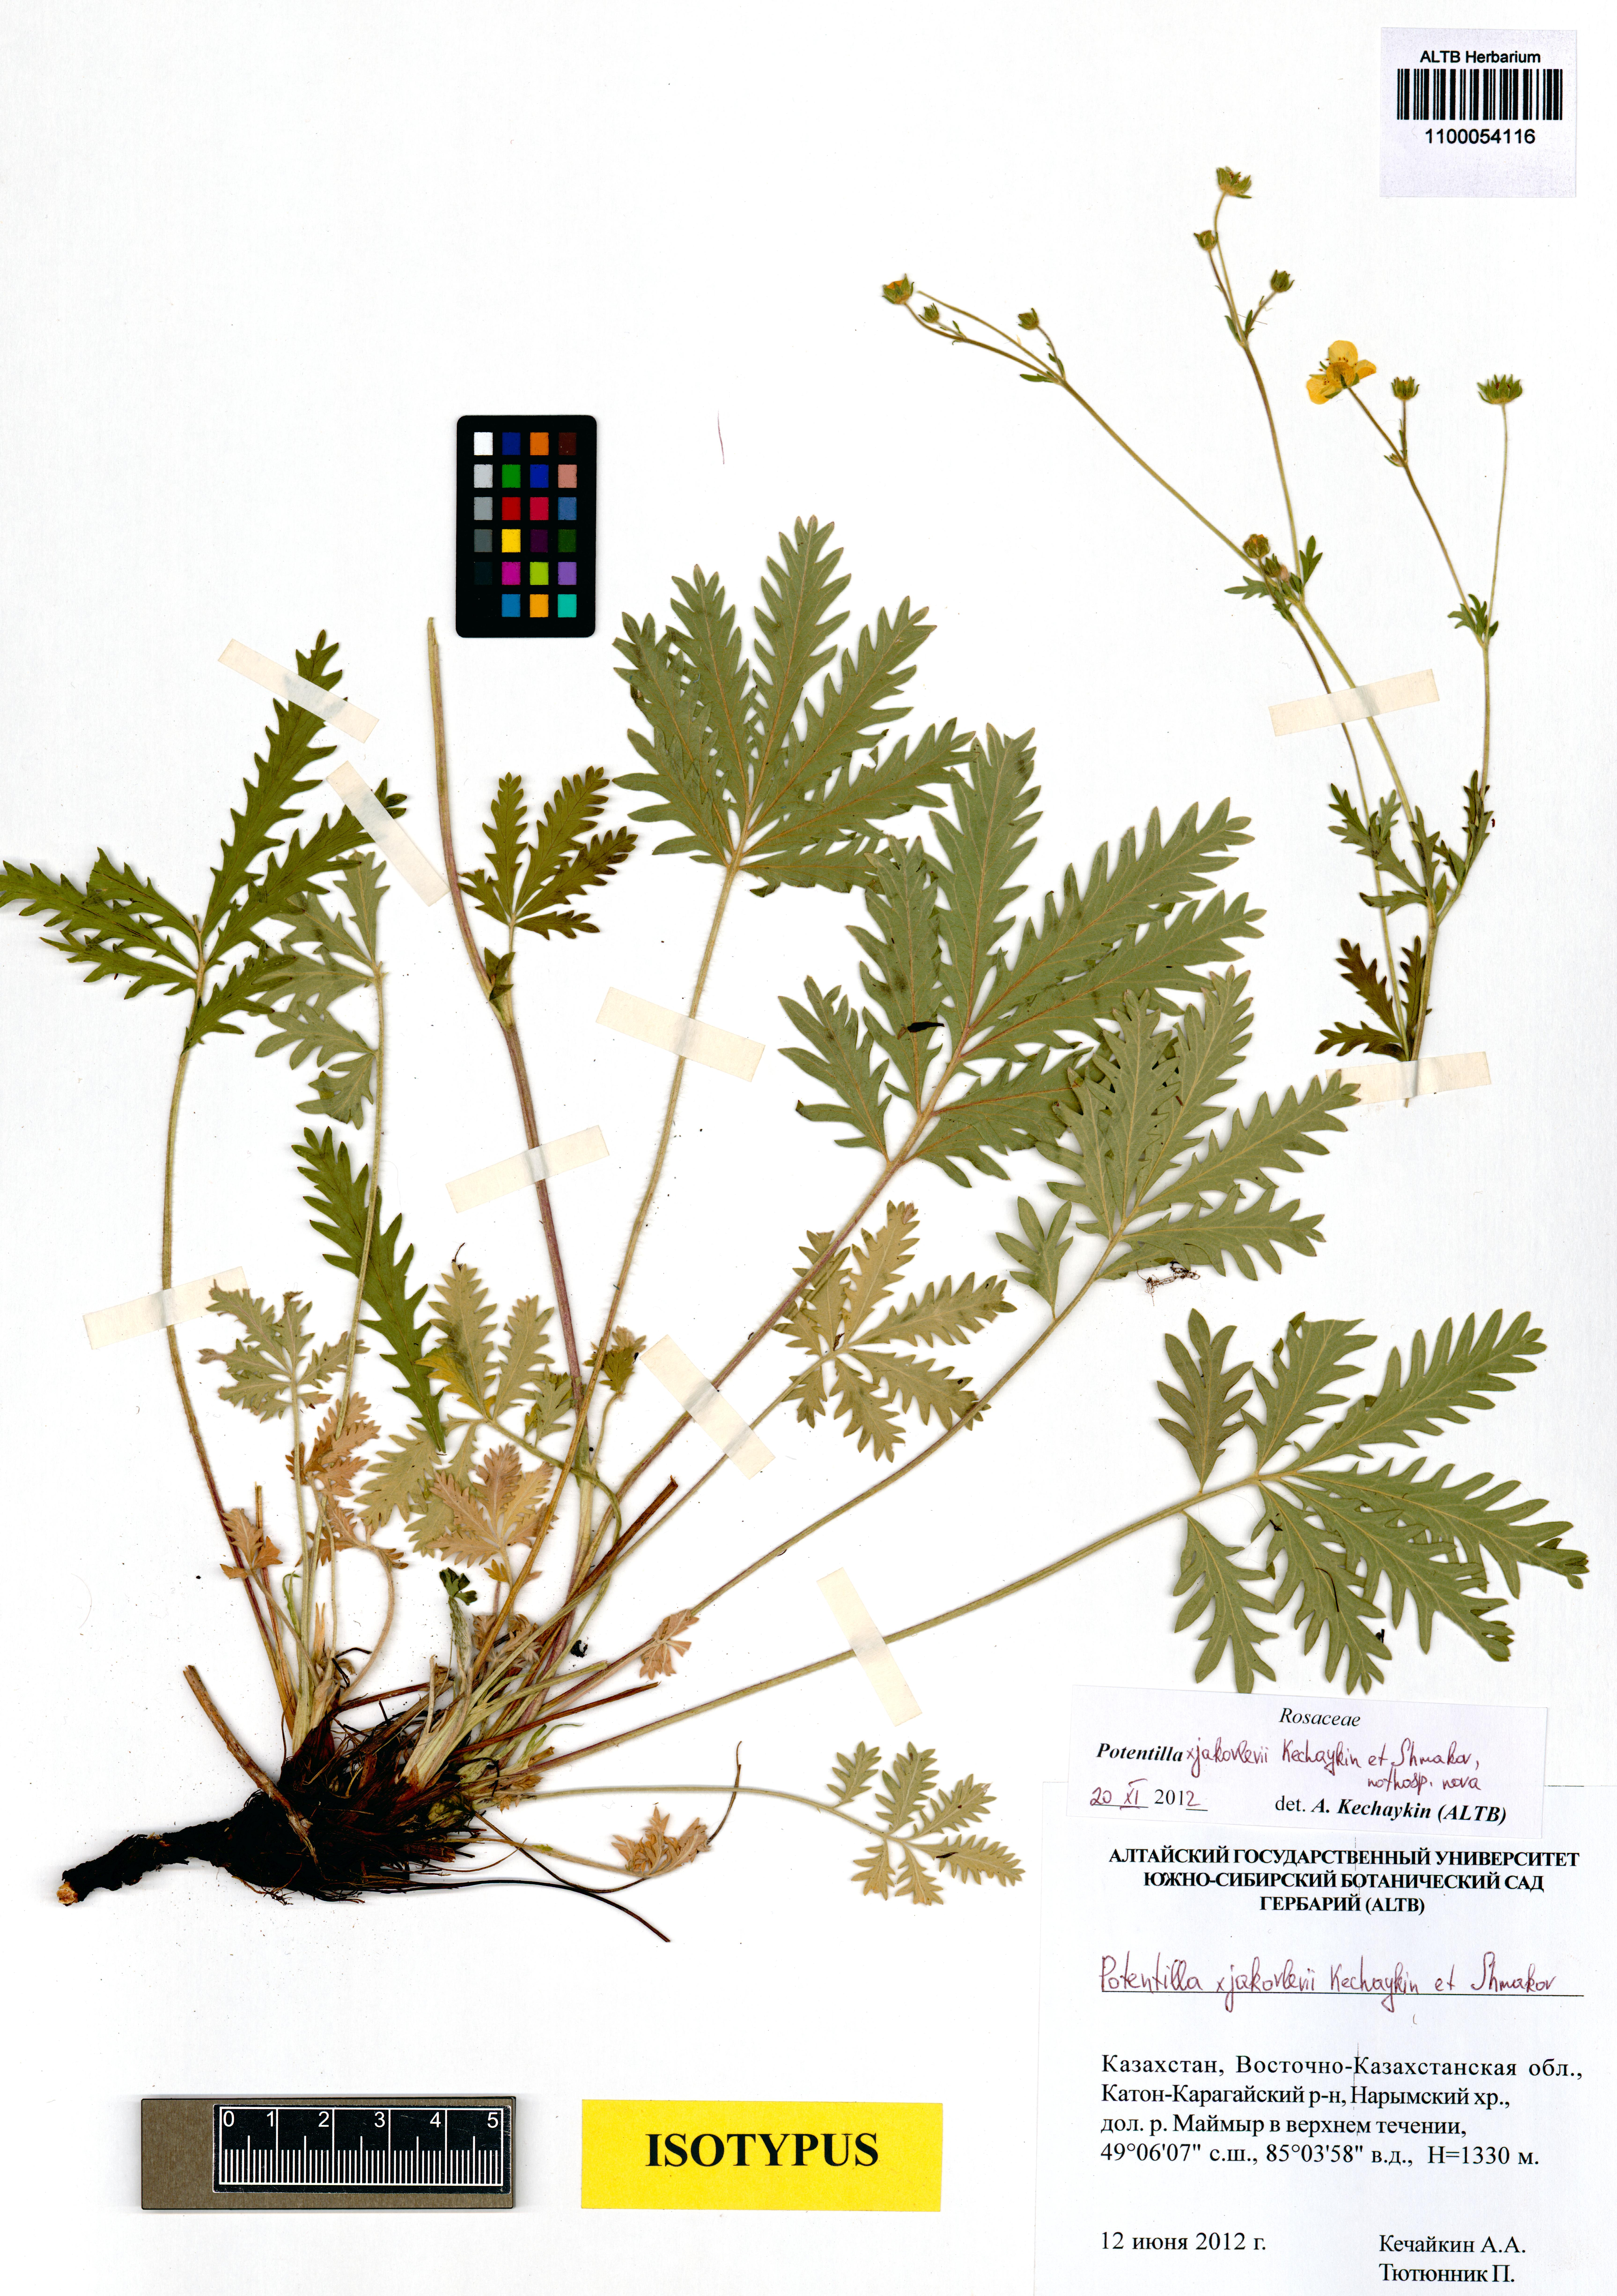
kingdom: Plantae
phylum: Tracheophyta
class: Magnoliopsida
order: Rosales
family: Rosaceae
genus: Potentilla
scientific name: Potentilla jakovlevii
